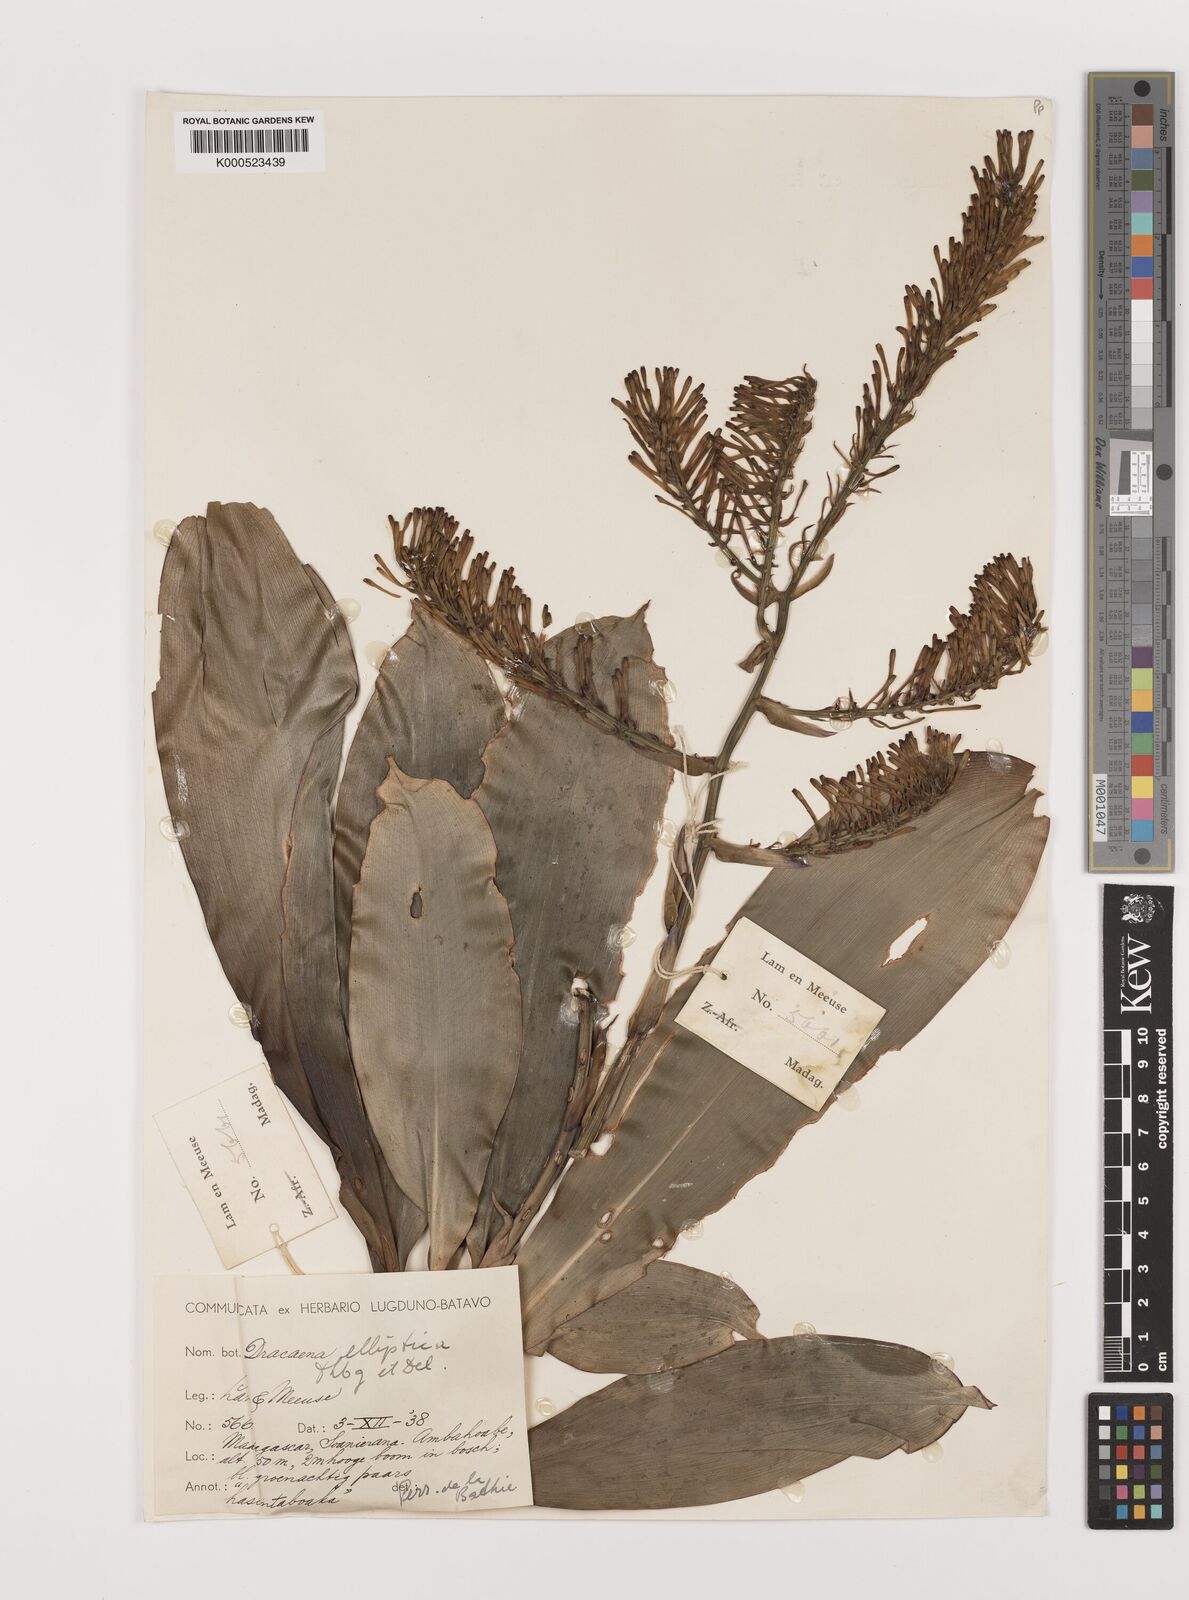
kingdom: Plantae
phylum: Tracheophyta
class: Liliopsida
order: Asparagales
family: Asparagaceae
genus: Dracaena
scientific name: Dracaena elliptica
